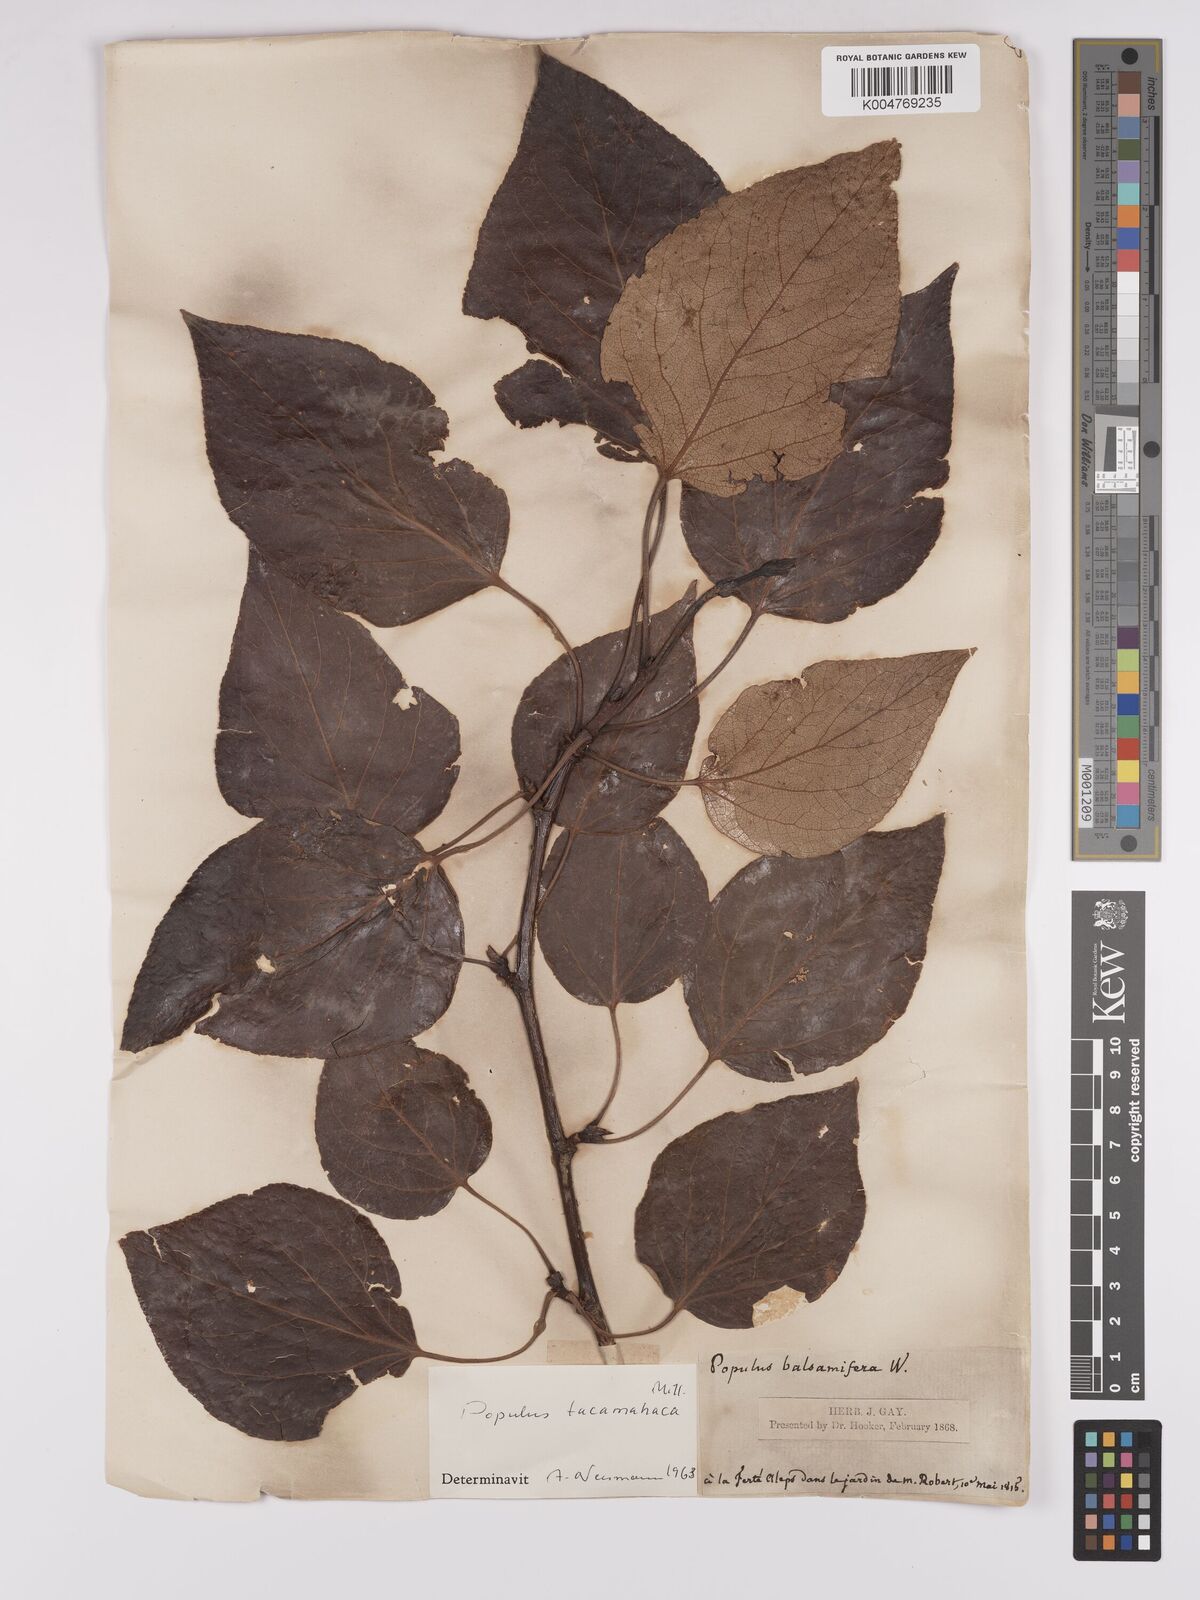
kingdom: Plantae
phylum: Tracheophyta
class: Magnoliopsida
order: Malpighiales
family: Salicaceae
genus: Populus
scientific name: Populus balsamifera
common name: Balsam poplar
